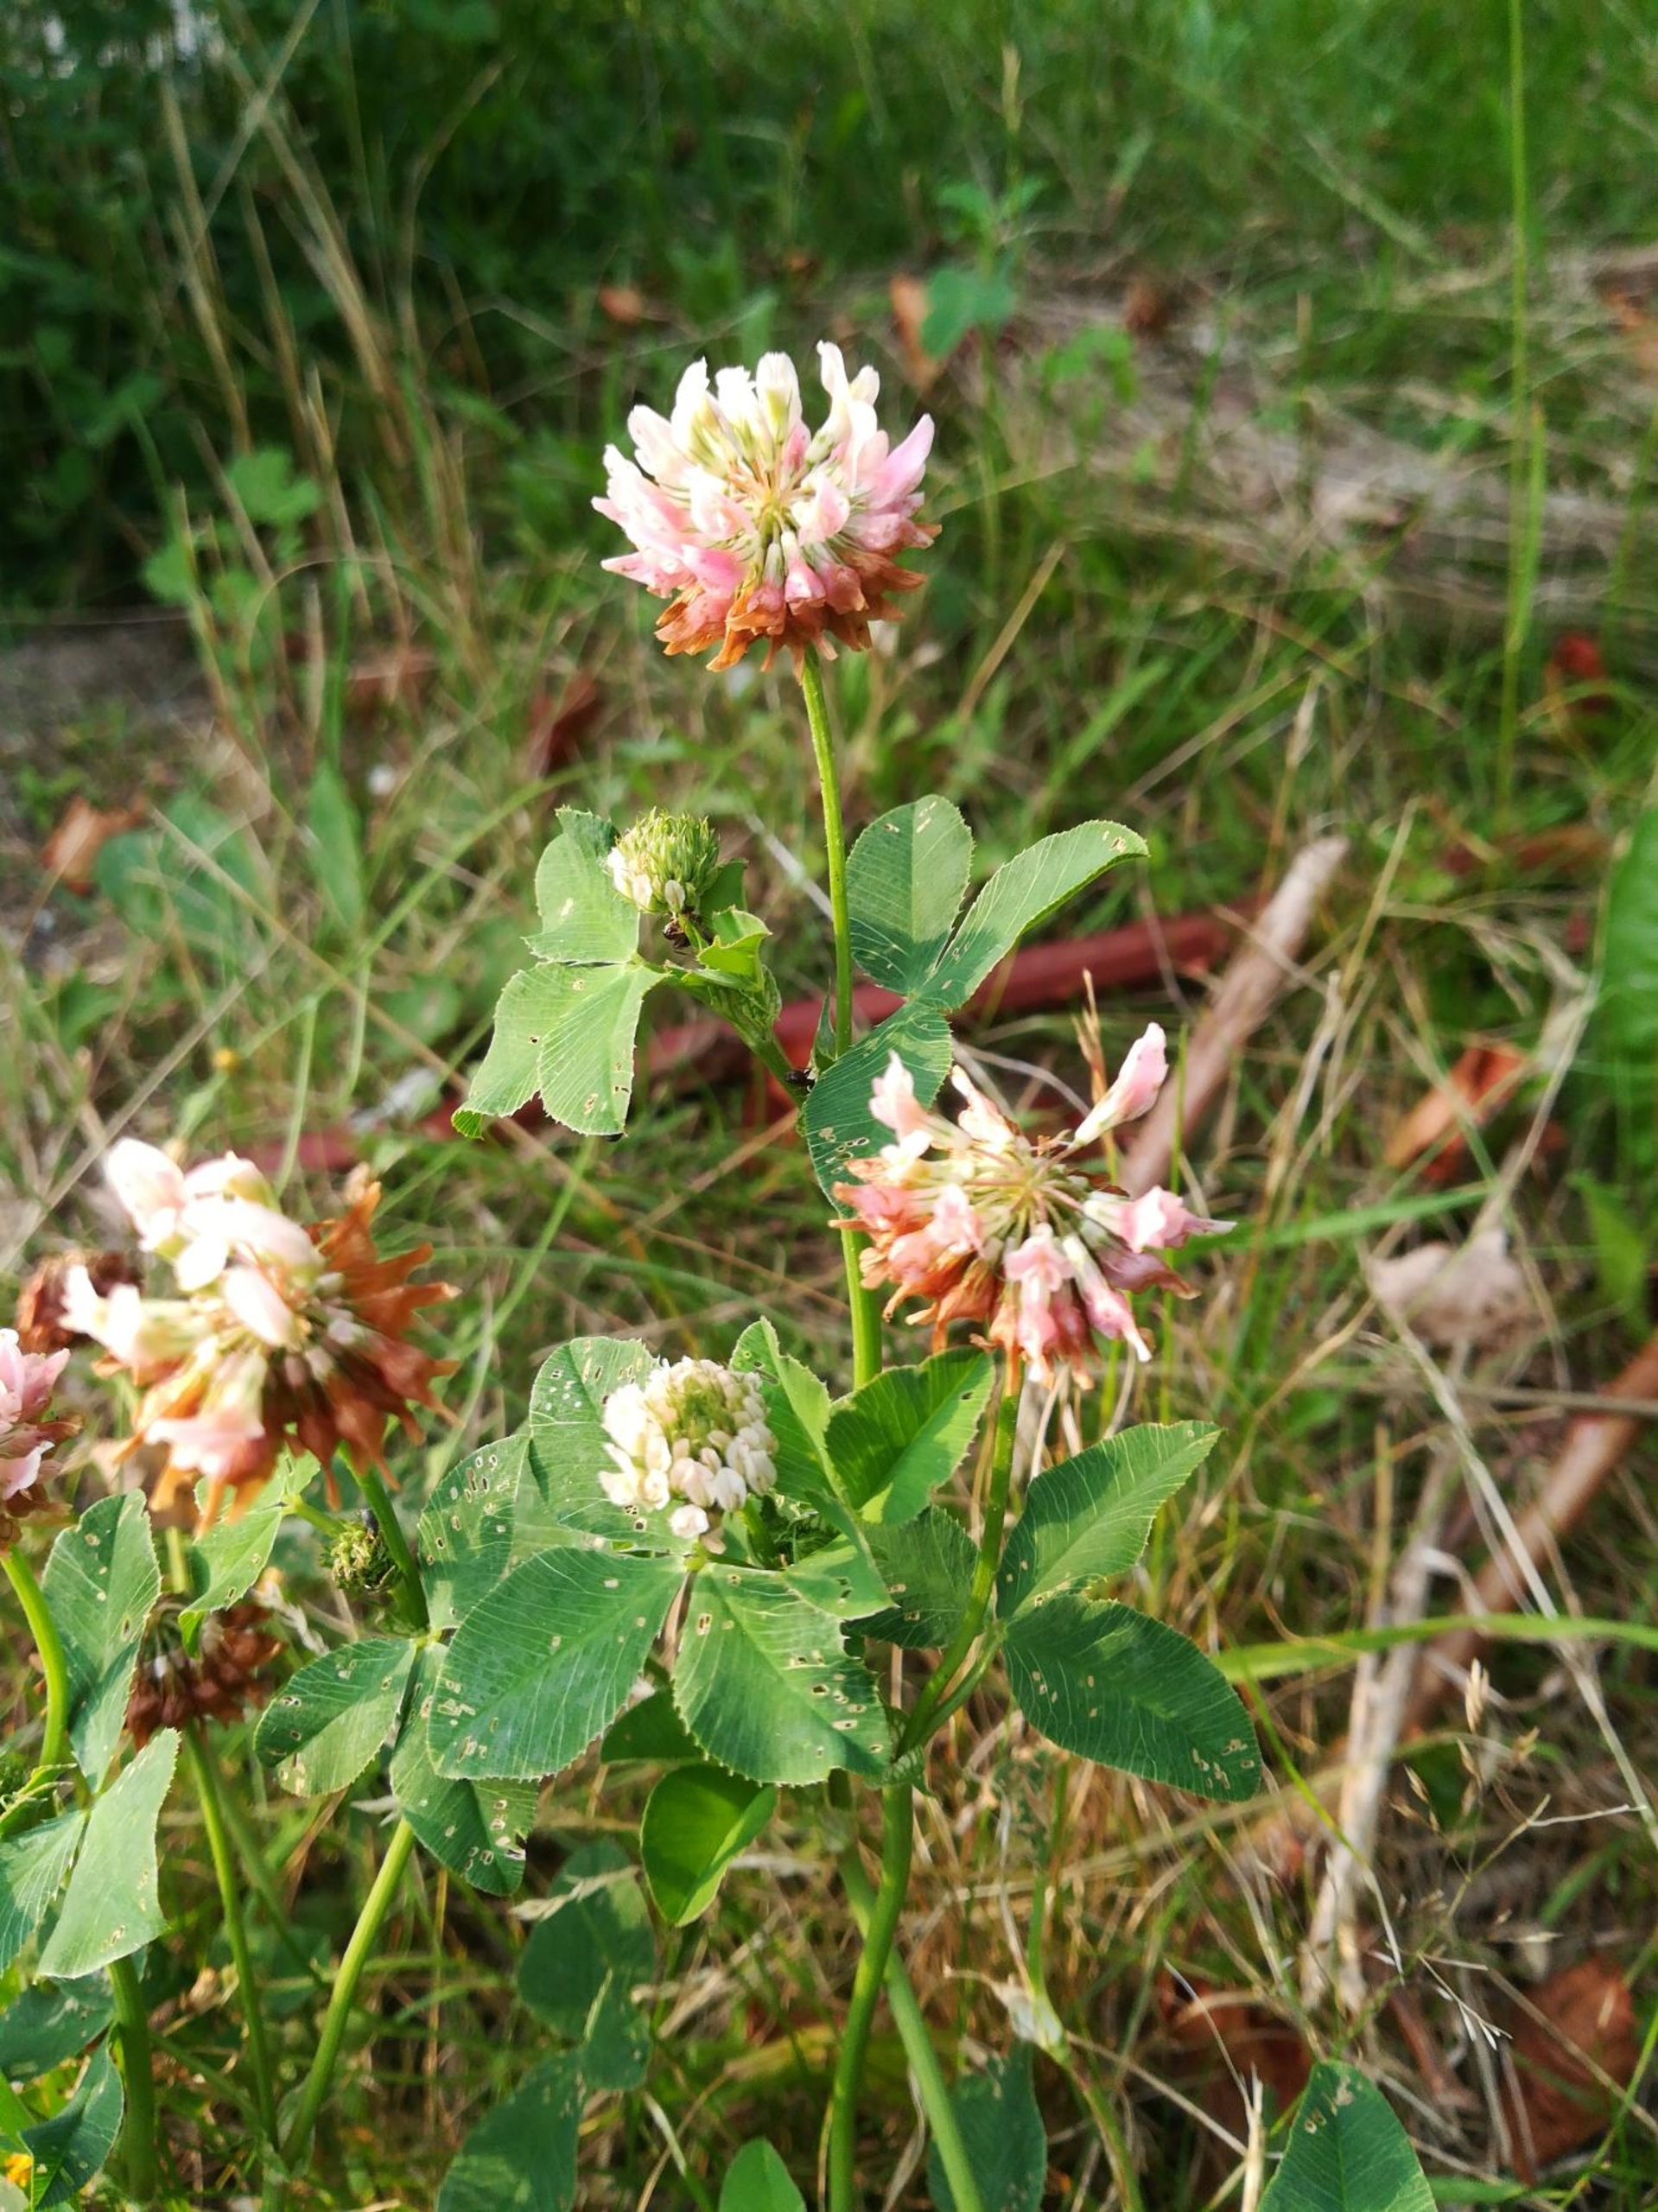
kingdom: Plantae
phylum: Tracheophyta
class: Magnoliopsida
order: Fabales
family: Fabaceae
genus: Trifolium
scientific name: Trifolium hybridum
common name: Alsike-kløver
